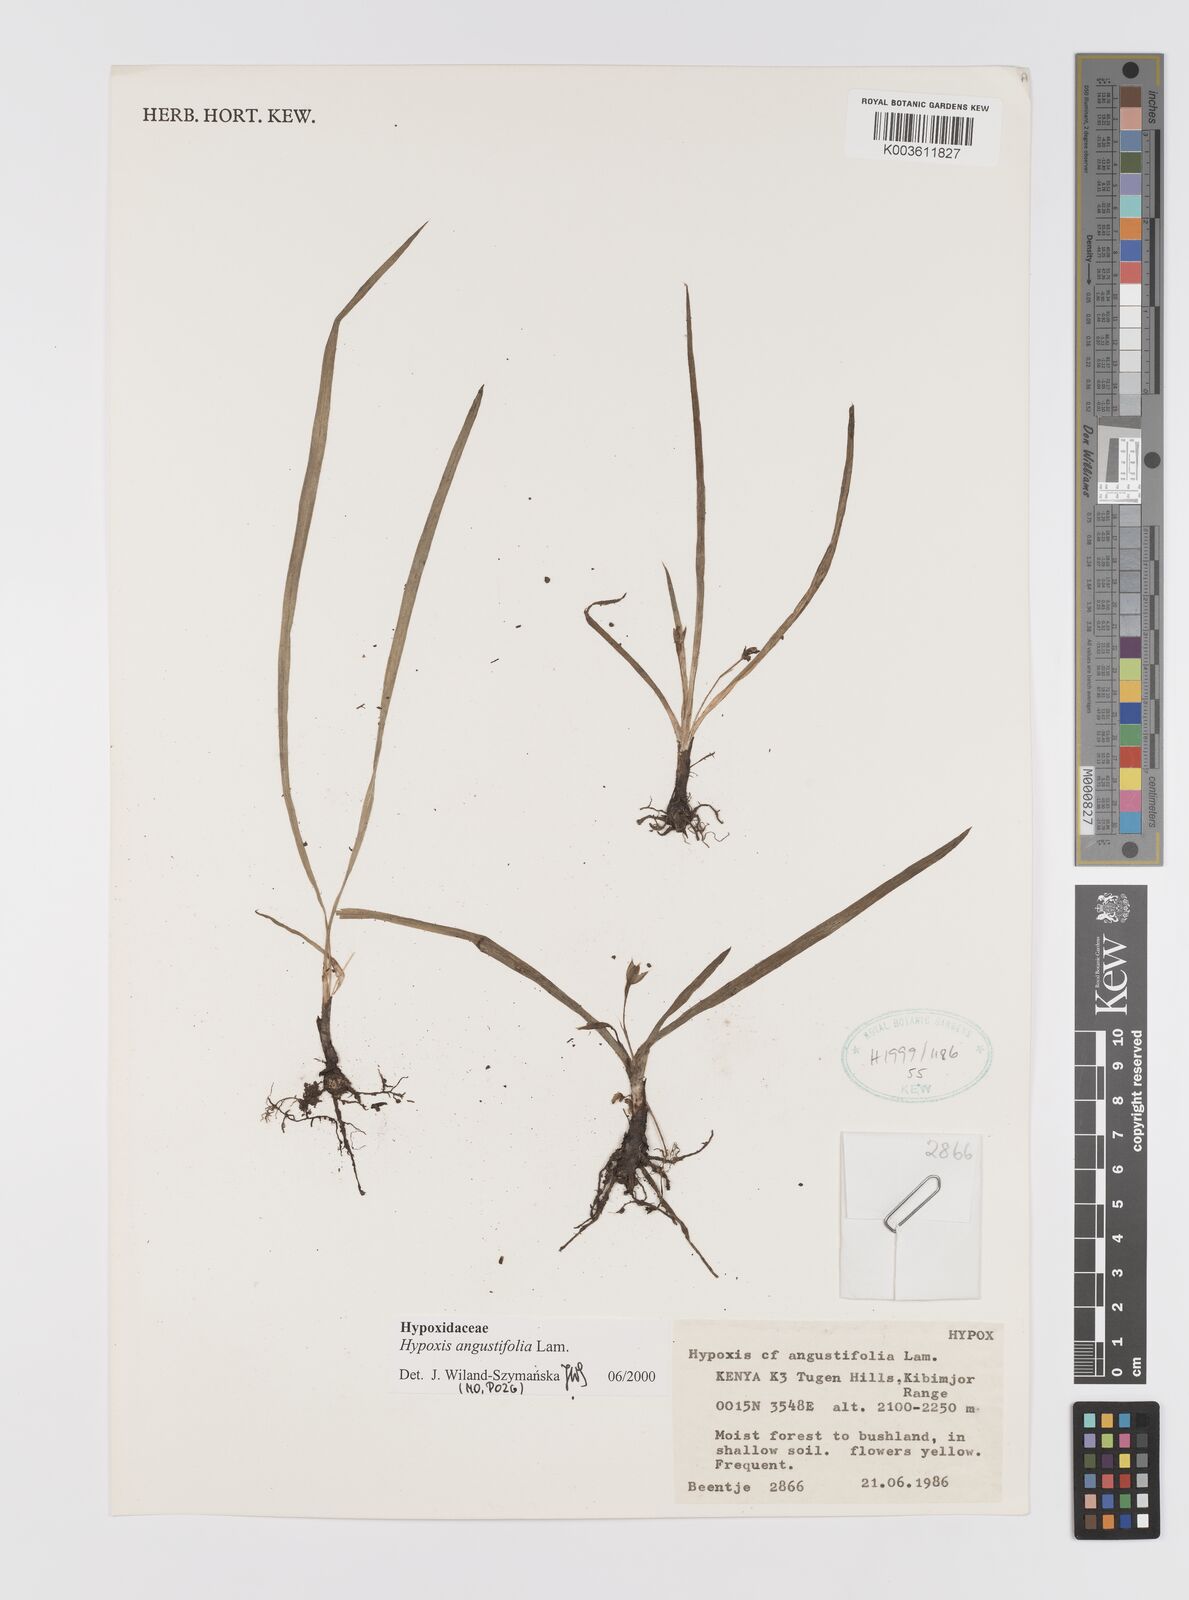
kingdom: Plantae
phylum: Tracheophyta
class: Liliopsida
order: Asparagales
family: Hypoxidaceae
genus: Hypoxis
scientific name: Hypoxis angustifolia
